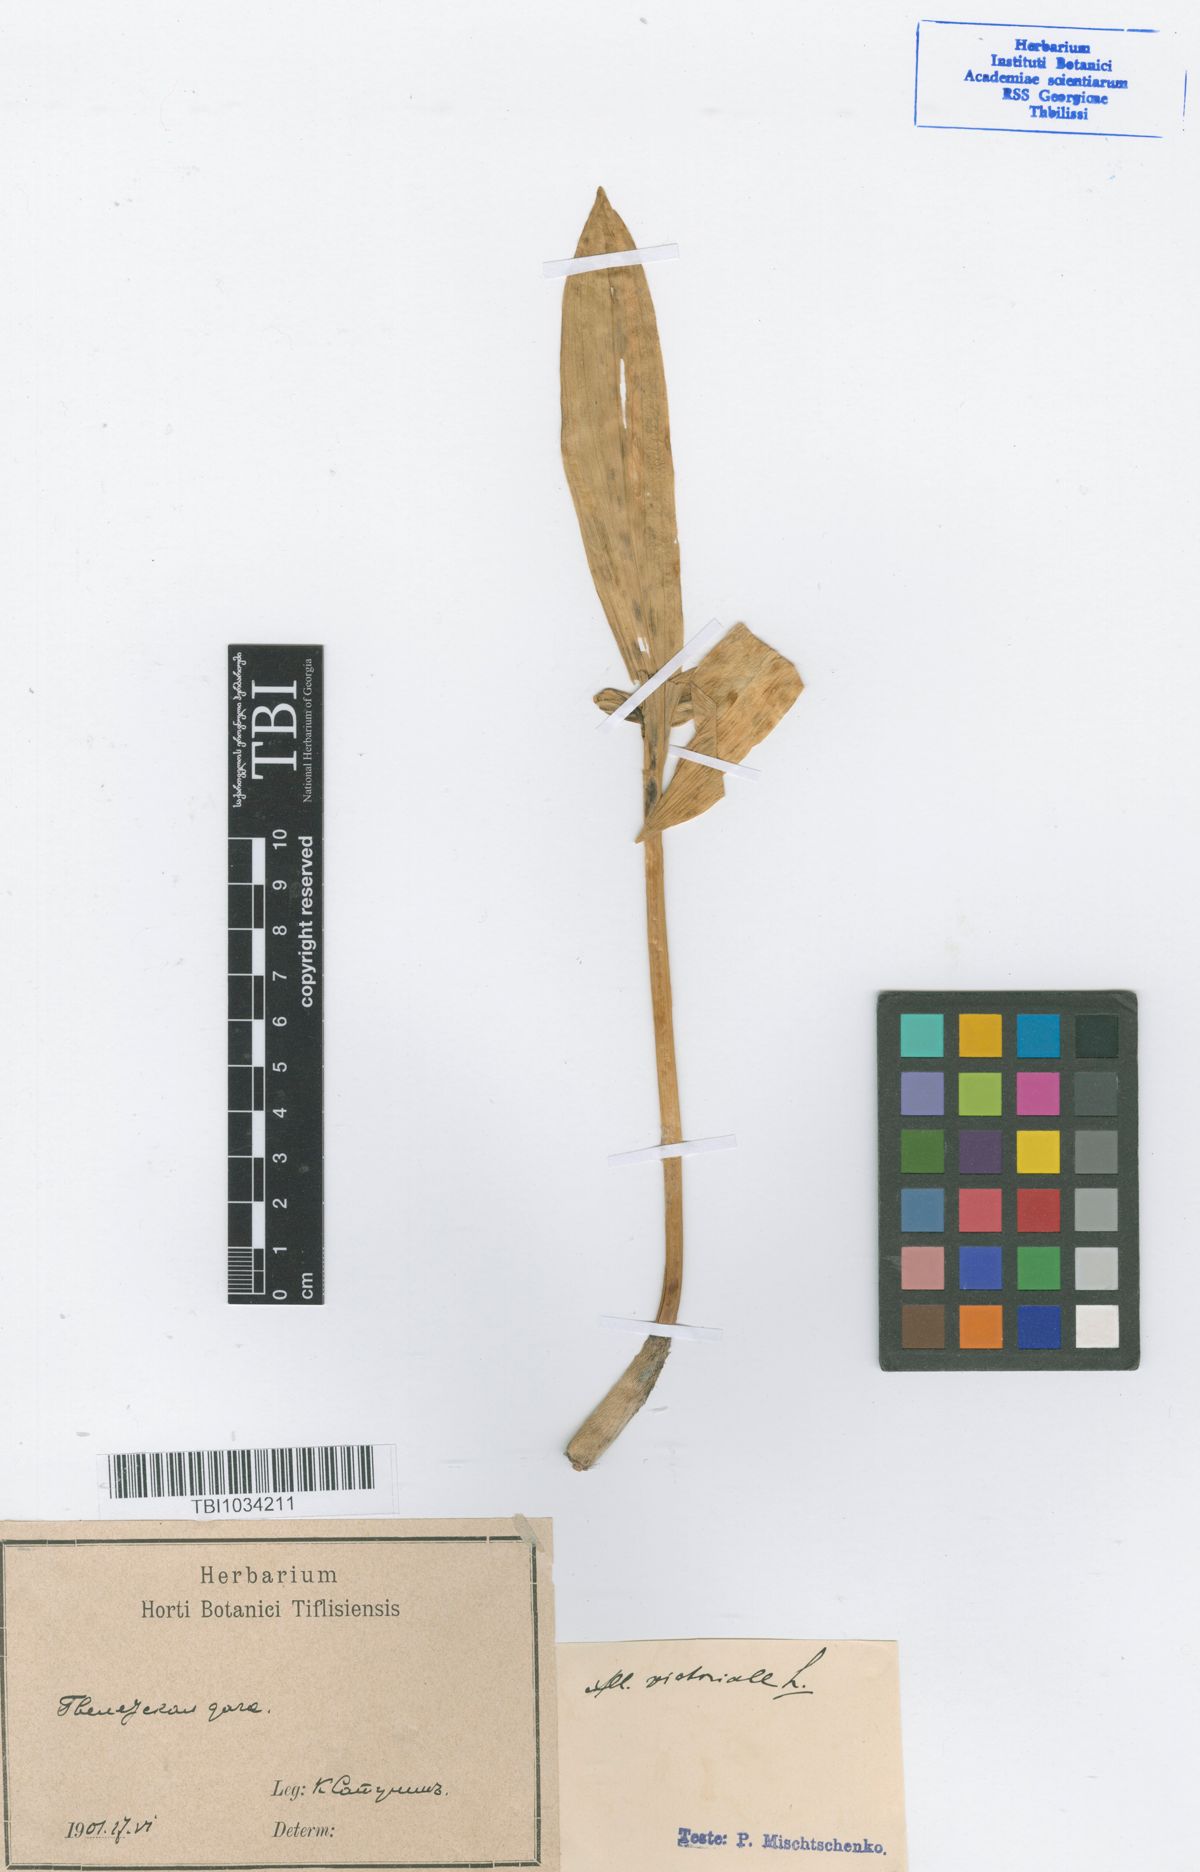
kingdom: Plantae
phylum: Tracheophyta
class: Liliopsida
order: Asparagales
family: Amaryllidaceae
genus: Allium
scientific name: Allium victorialis
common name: Alpine leek
